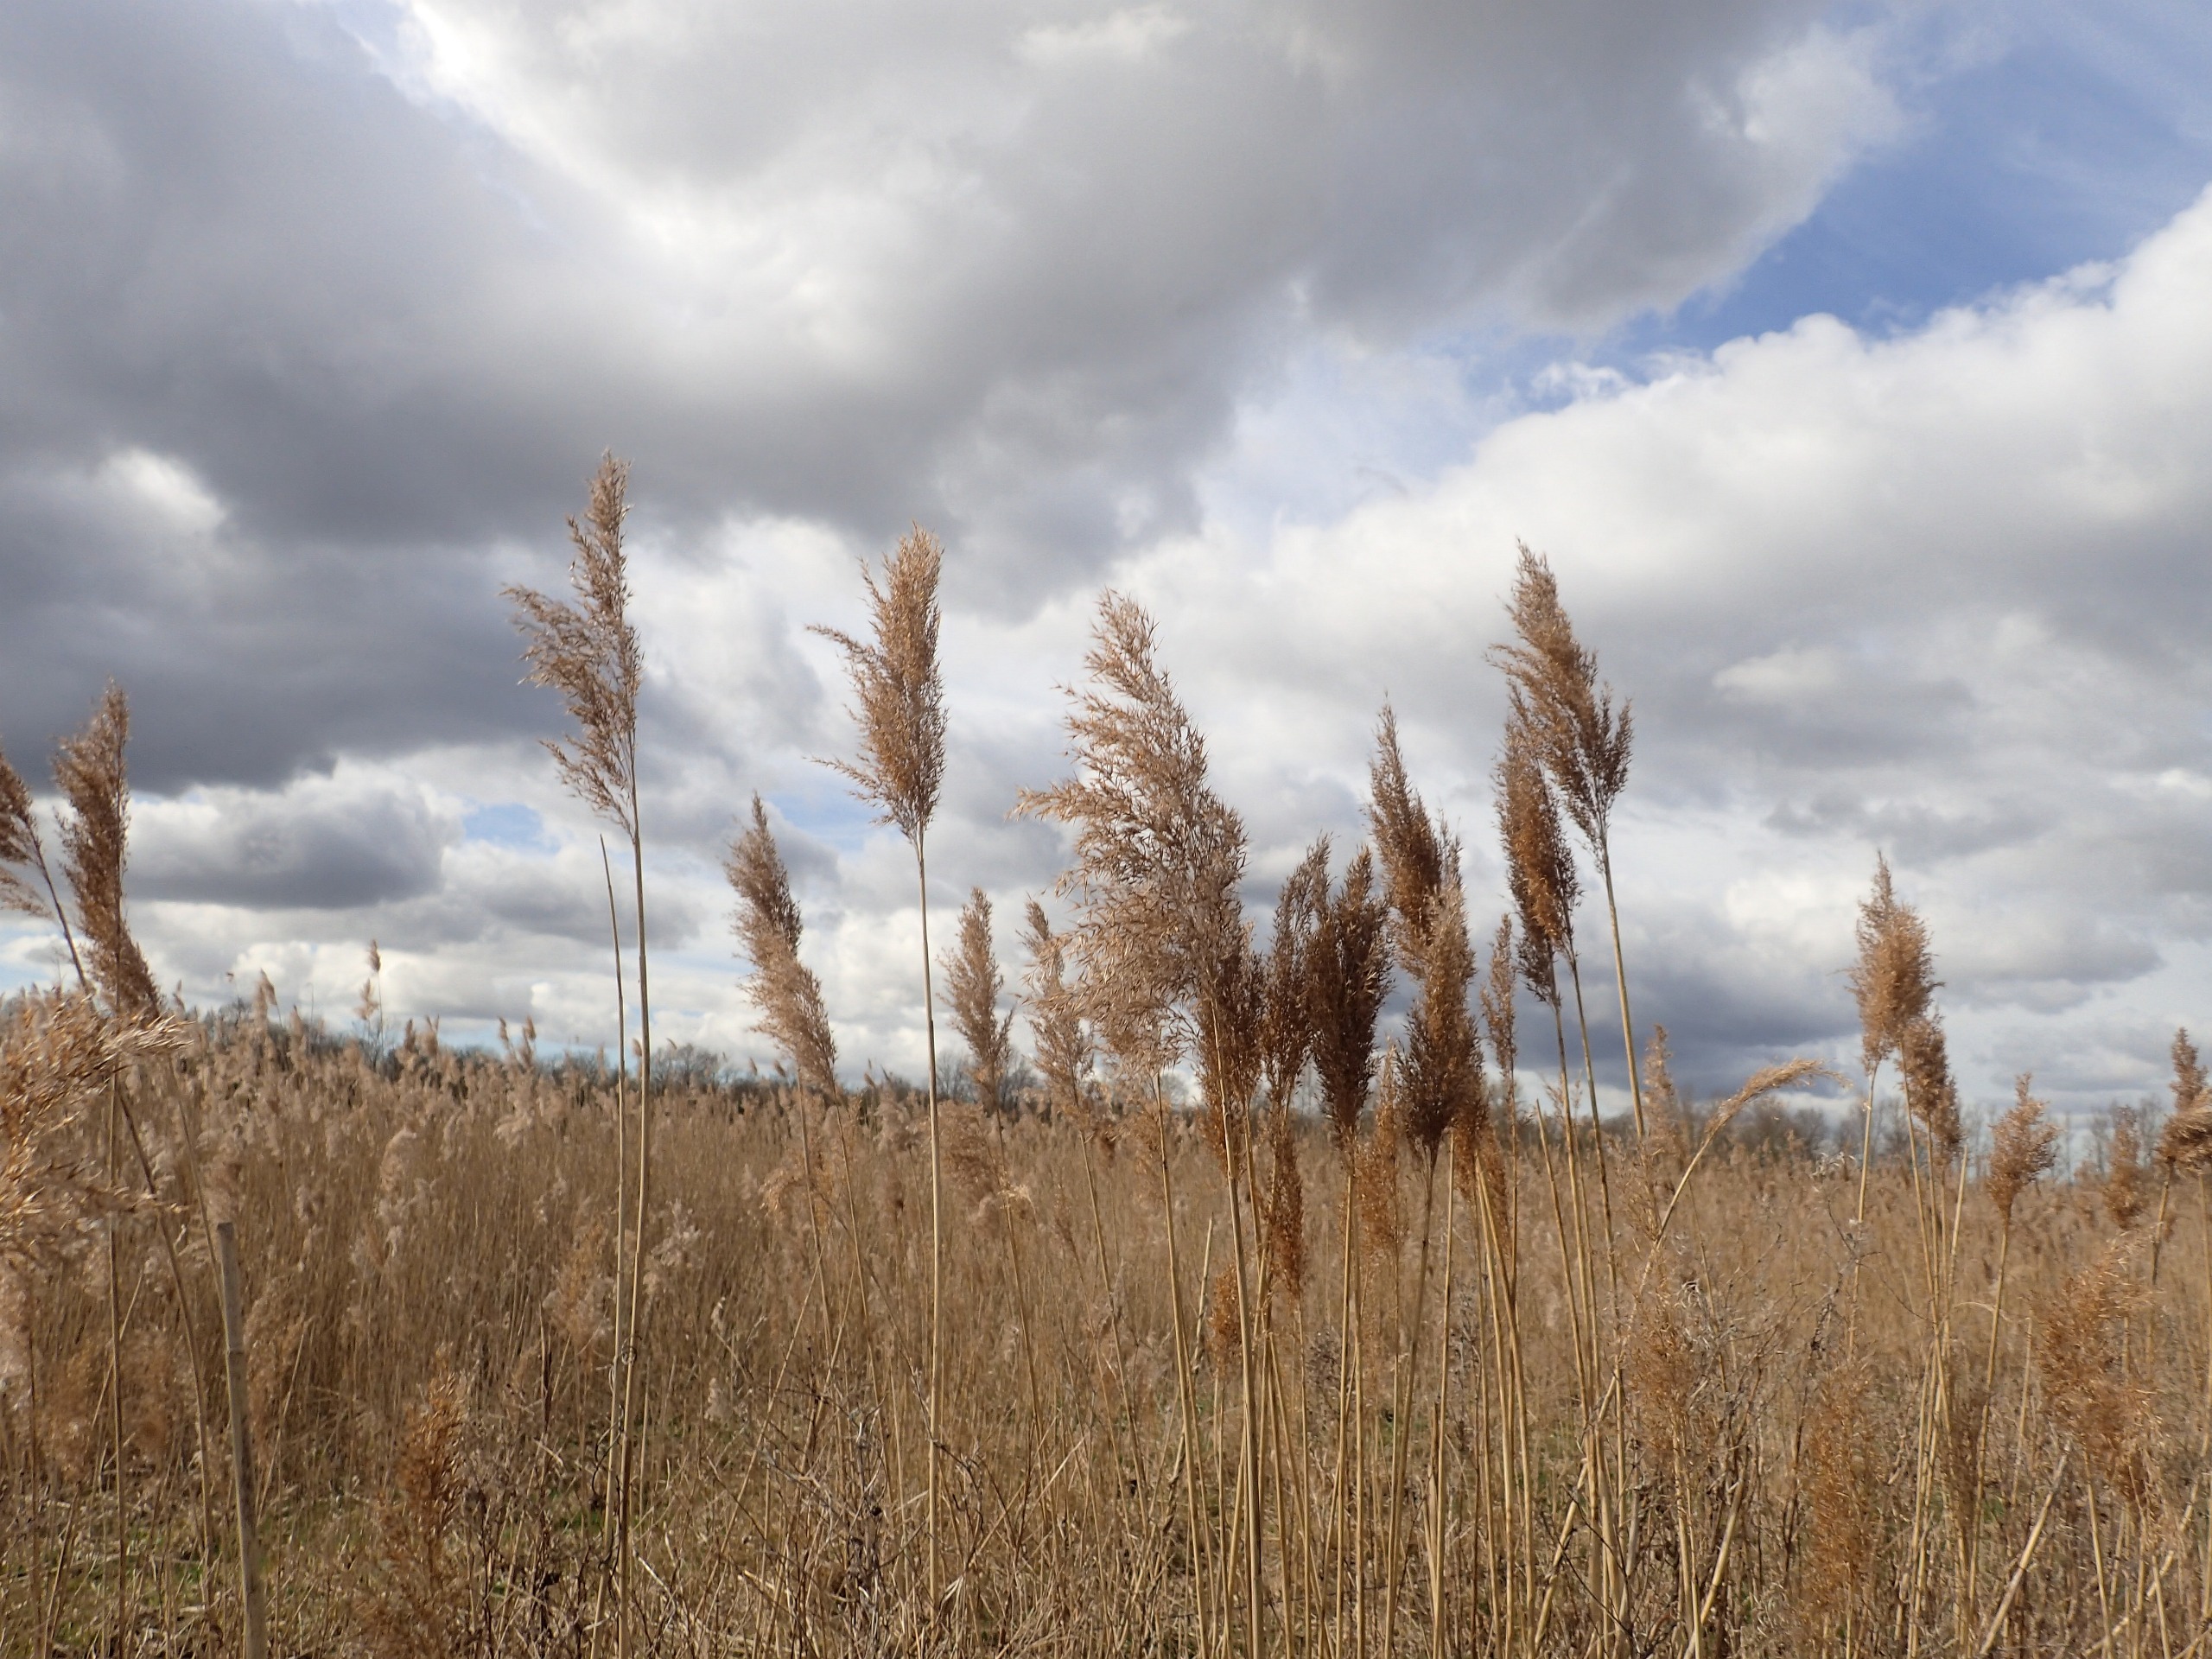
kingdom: Plantae
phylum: Tracheophyta
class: Liliopsida
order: Poales
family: Poaceae
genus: Phragmites
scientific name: Phragmites australis
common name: Tagrør
